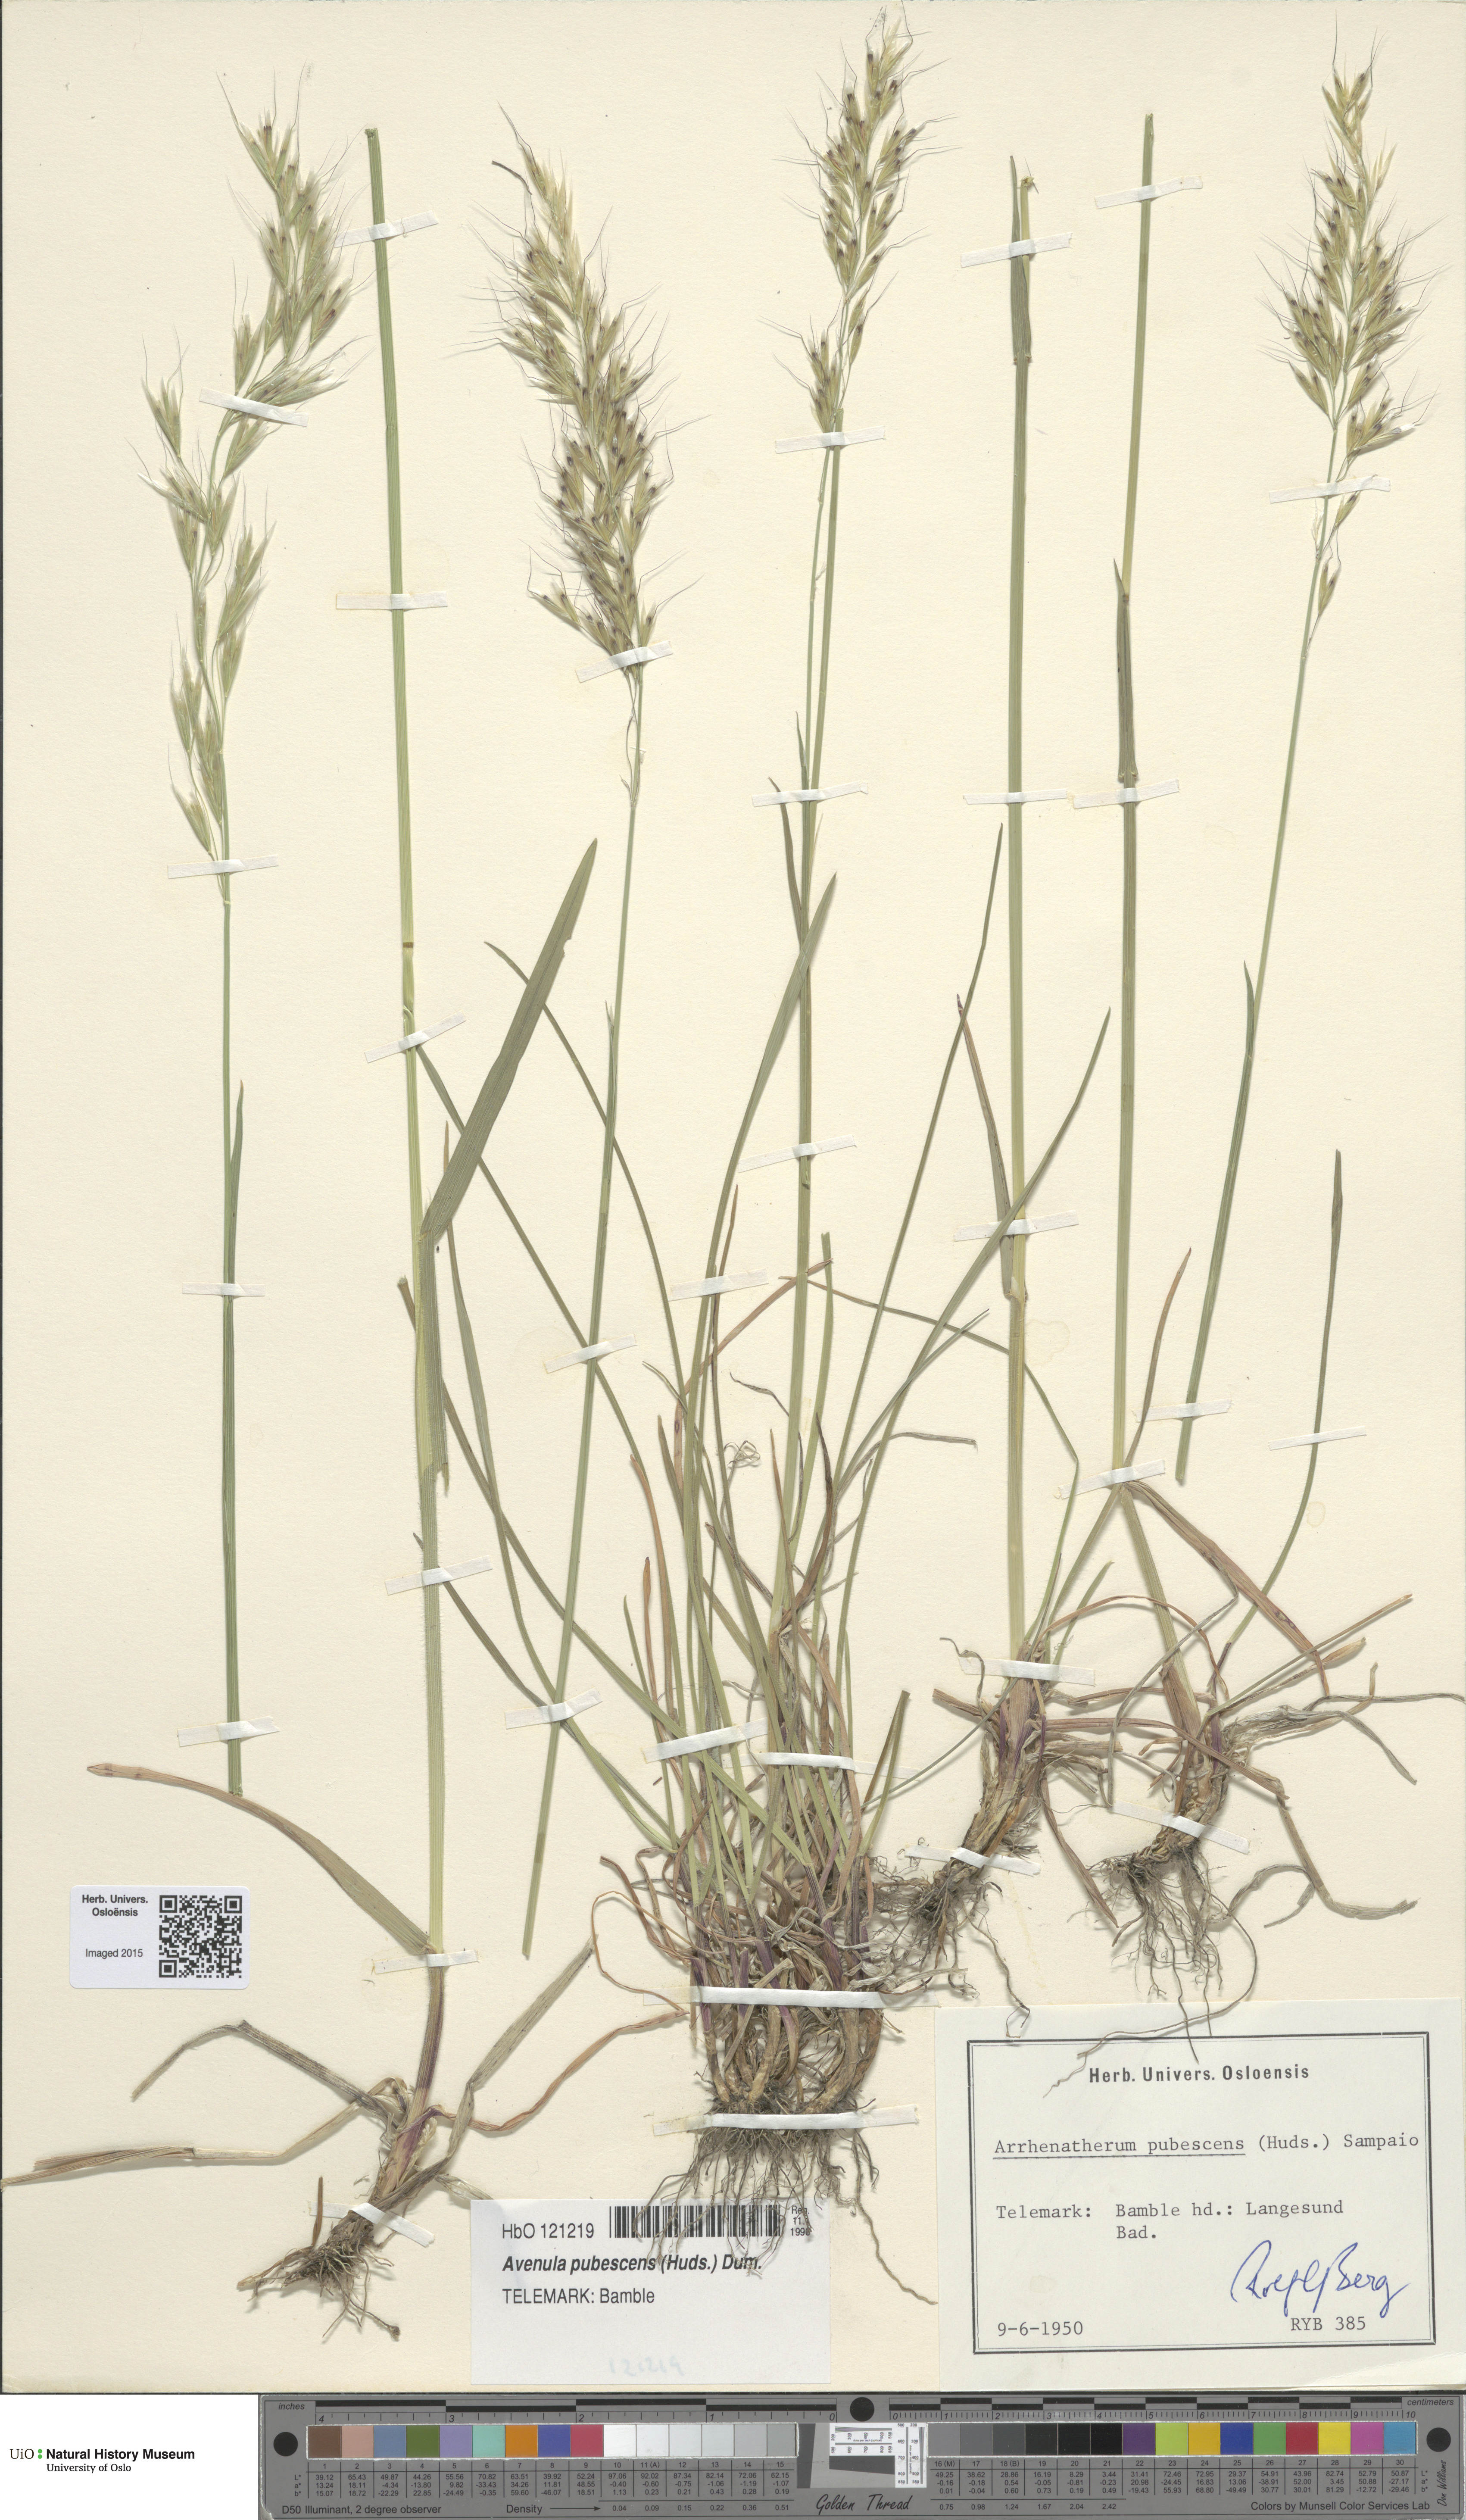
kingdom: Plantae
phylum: Tracheophyta
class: Liliopsida
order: Poales
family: Poaceae
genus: Avenula
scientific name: Avenula pubescens
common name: Downy alpine oatgrass
